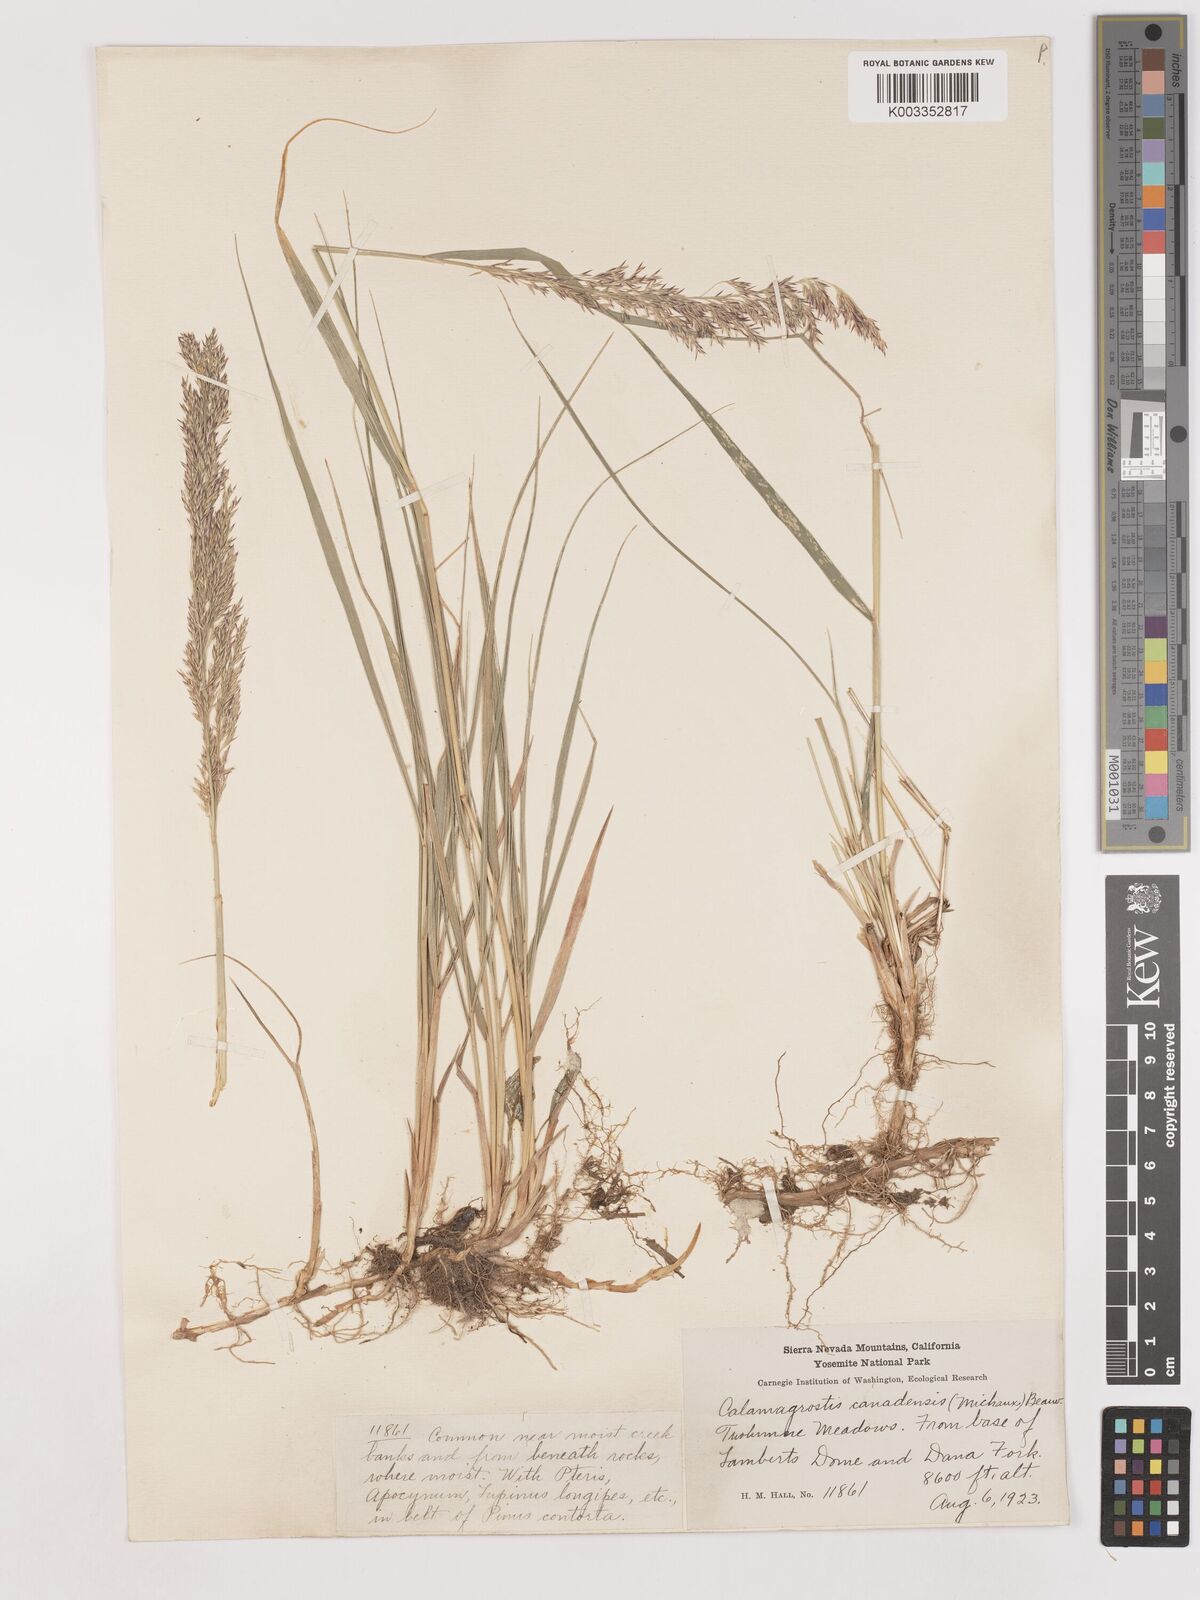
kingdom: Plantae
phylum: Tracheophyta
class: Liliopsida
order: Poales
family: Poaceae
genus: Calamagrostis
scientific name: Calamagrostis canadensis
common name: Canada bluejoint
